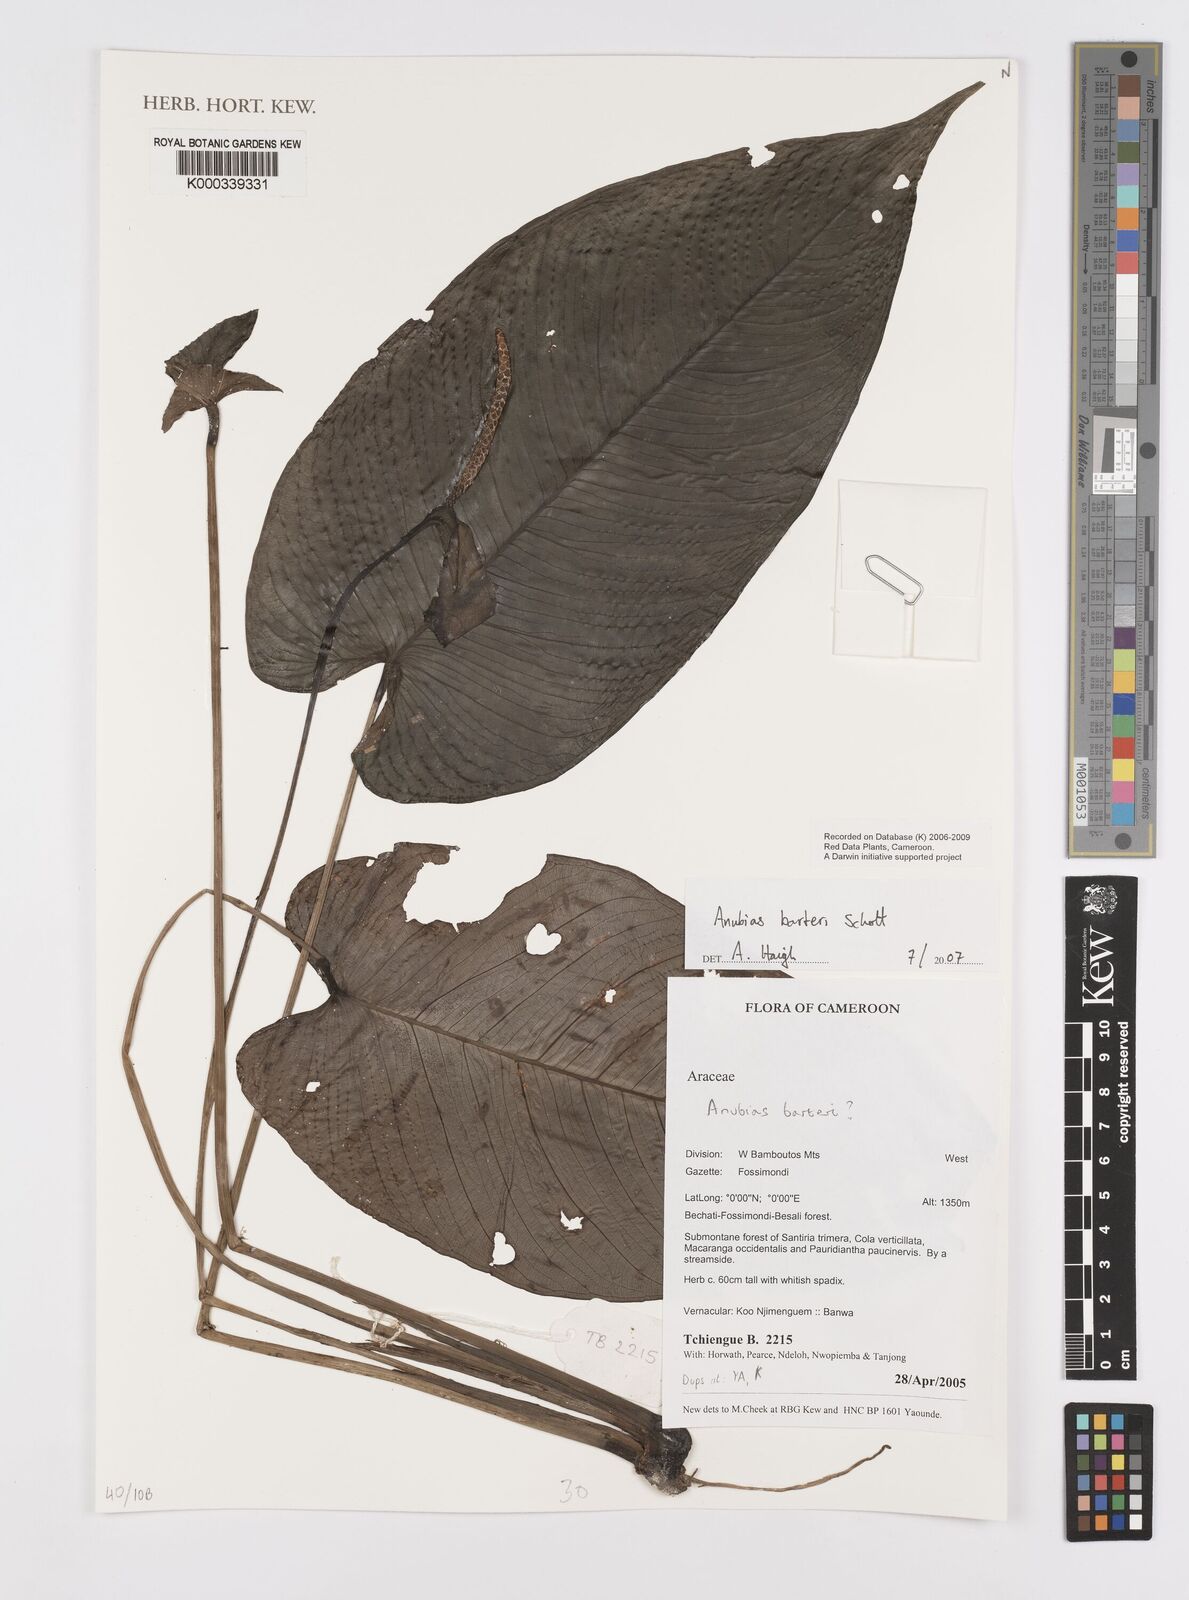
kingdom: Plantae
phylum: Tracheophyta
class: Liliopsida
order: Alismatales
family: Araceae
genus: Anubias
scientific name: Anubias barteri
